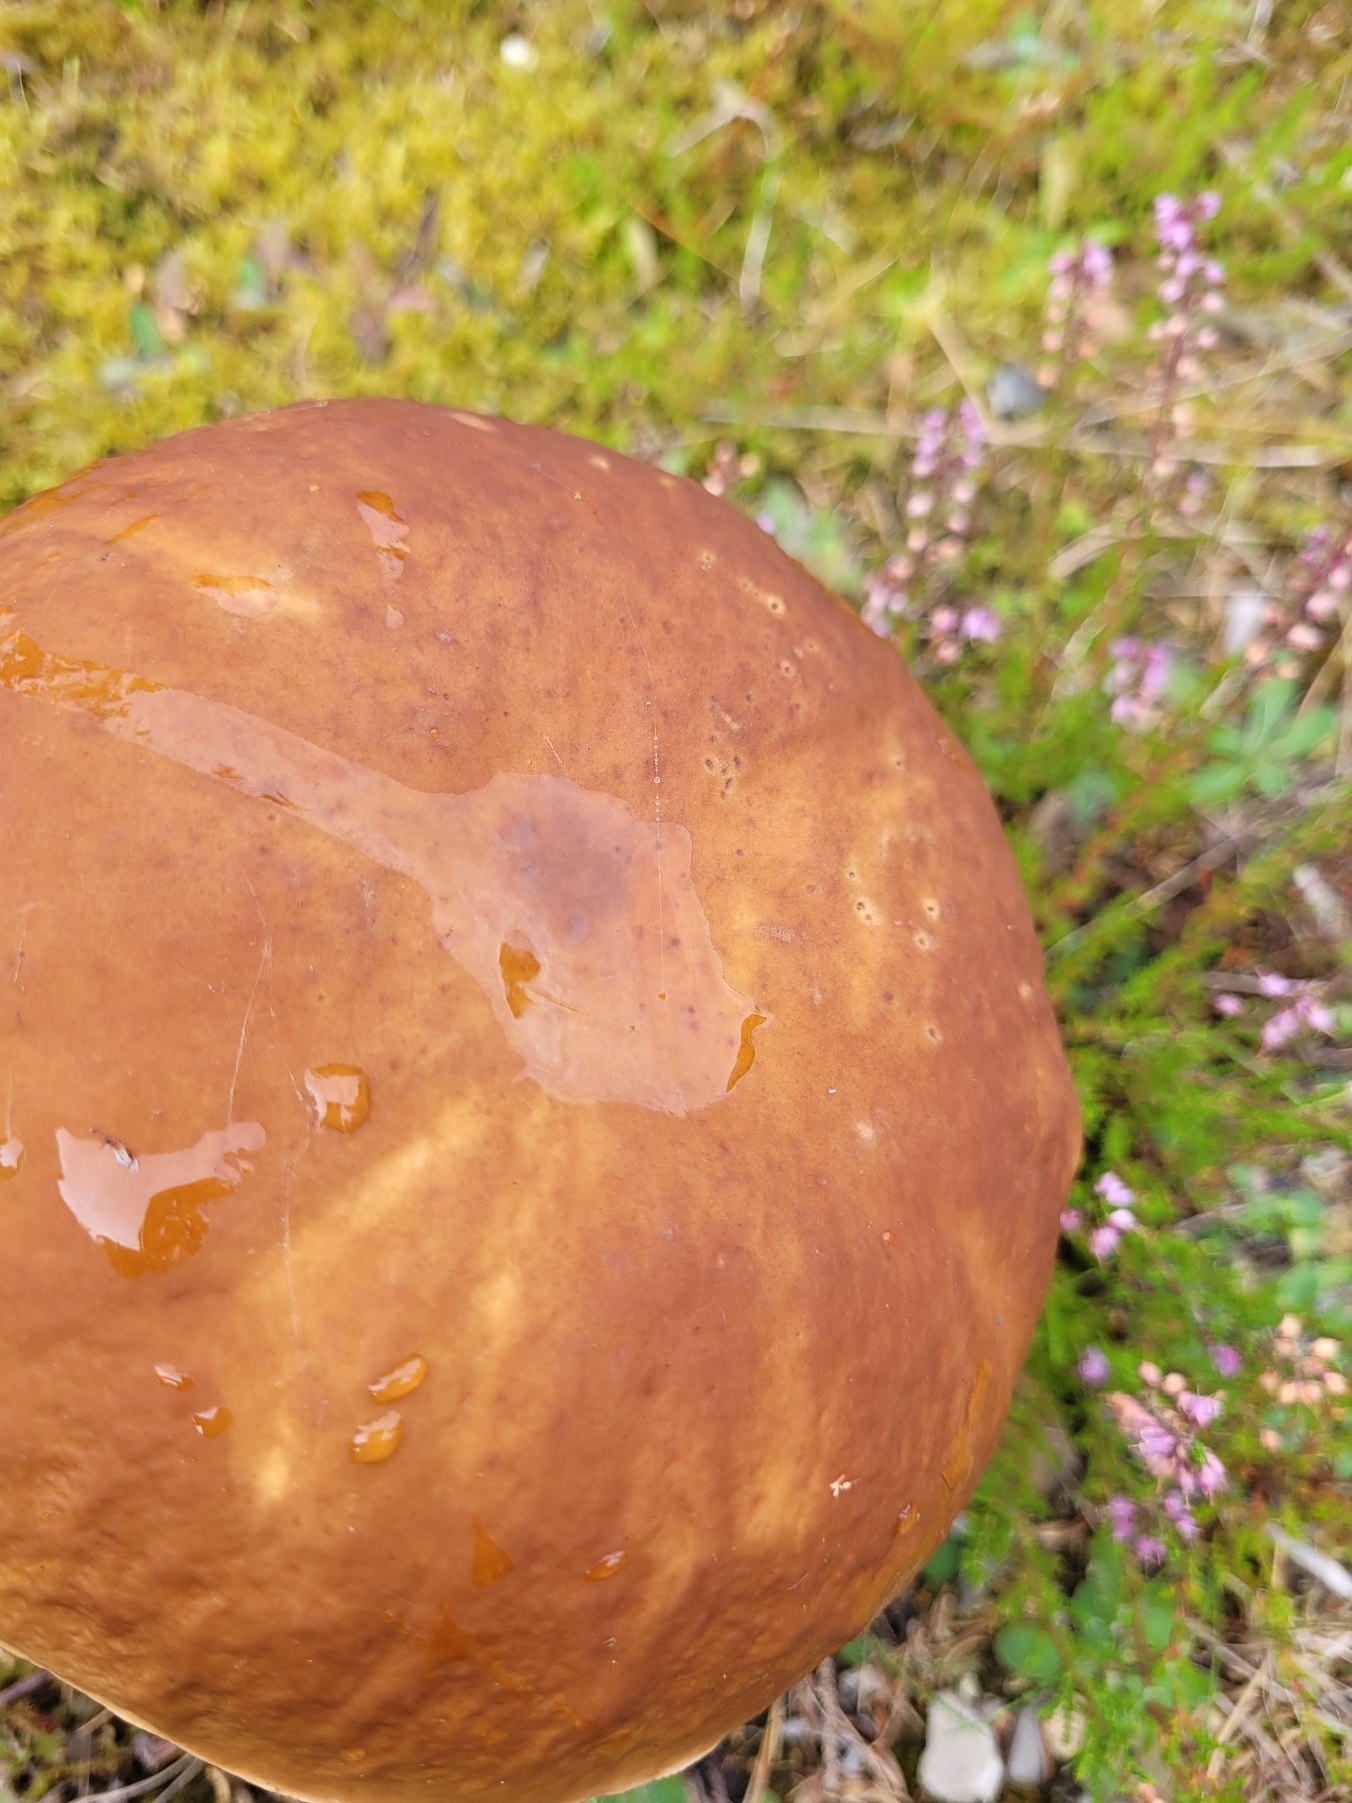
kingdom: Fungi
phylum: Basidiomycota
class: Agaricomycetes
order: Boletales
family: Boletaceae
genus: Boletus
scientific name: Boletus edulis
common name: Spiselig rørhat/karl johan
